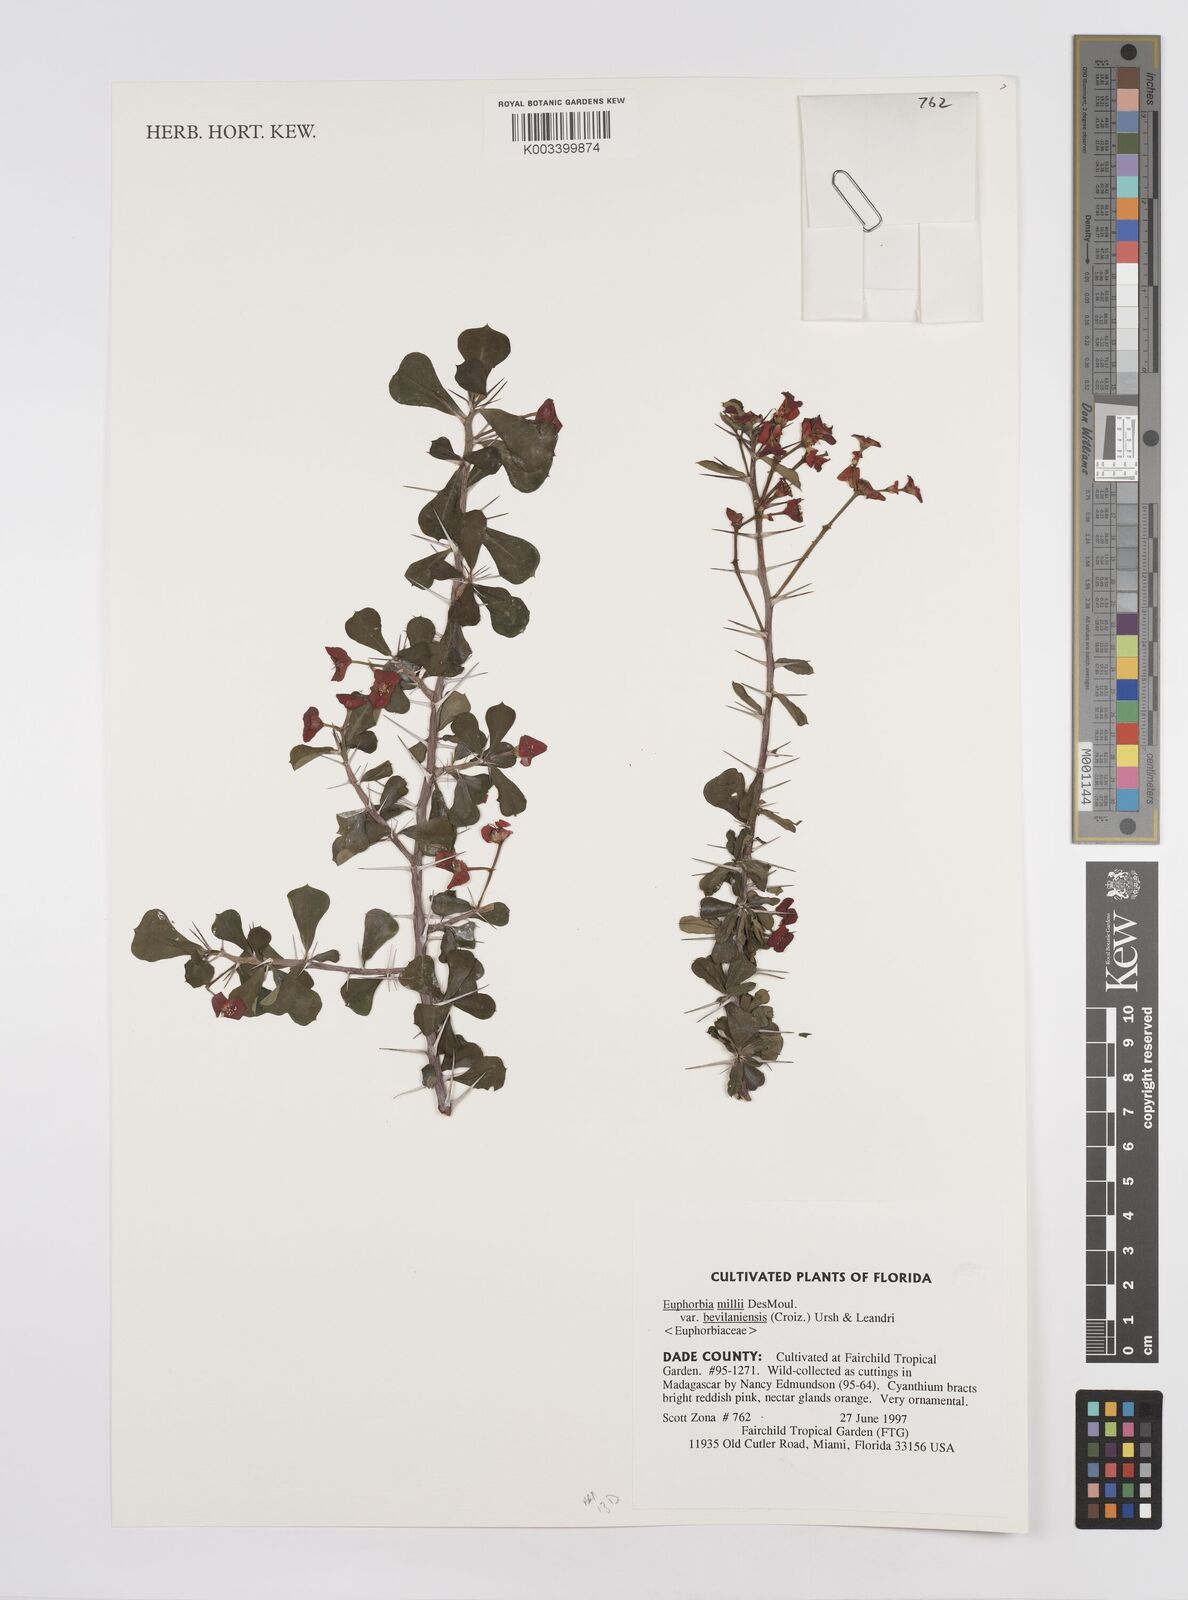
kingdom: Plantae
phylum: Tracheophyta
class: Magnoliopsida
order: Malpighiales
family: Euphorbiaceae
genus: Euphorbia
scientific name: Euphorbia bevilaniensis
